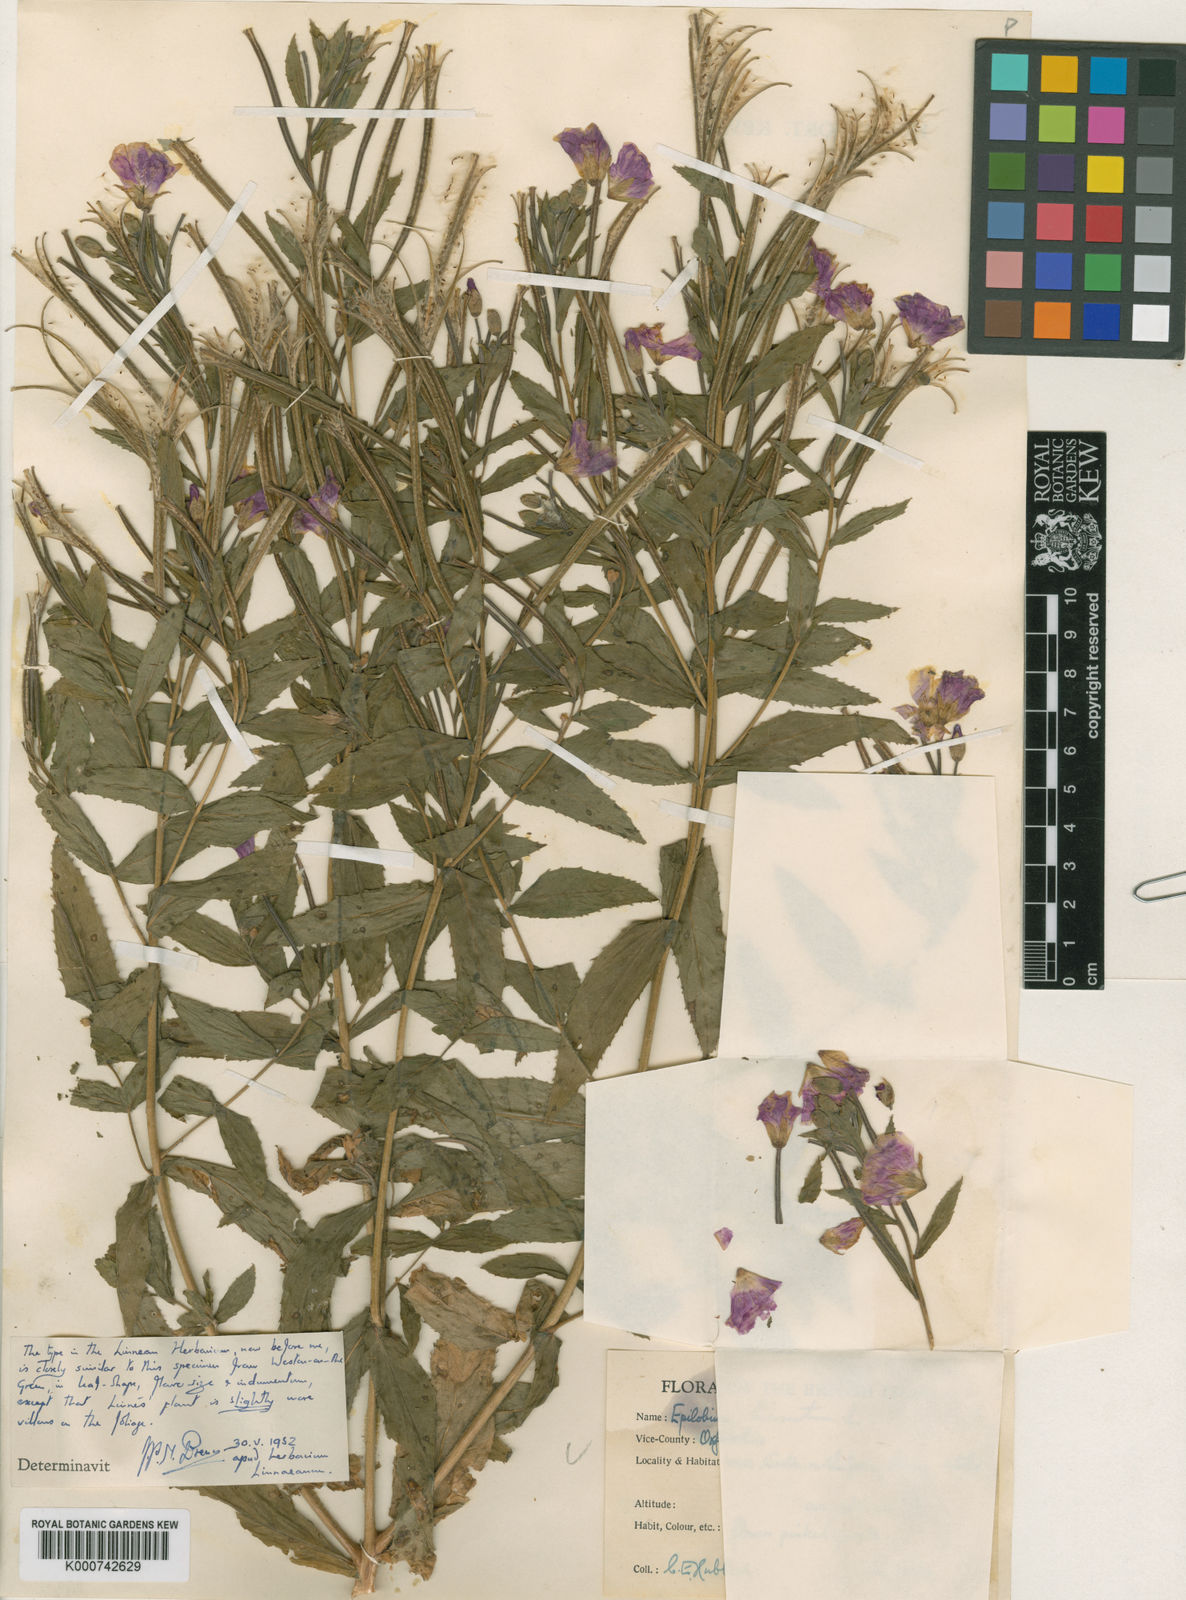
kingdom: Plantae
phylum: Tracheophyta
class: Magnoliopsida
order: Myrtales
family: Onagraceae
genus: Epilobium
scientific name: Epilobium hirsutum
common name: Great willowherb
